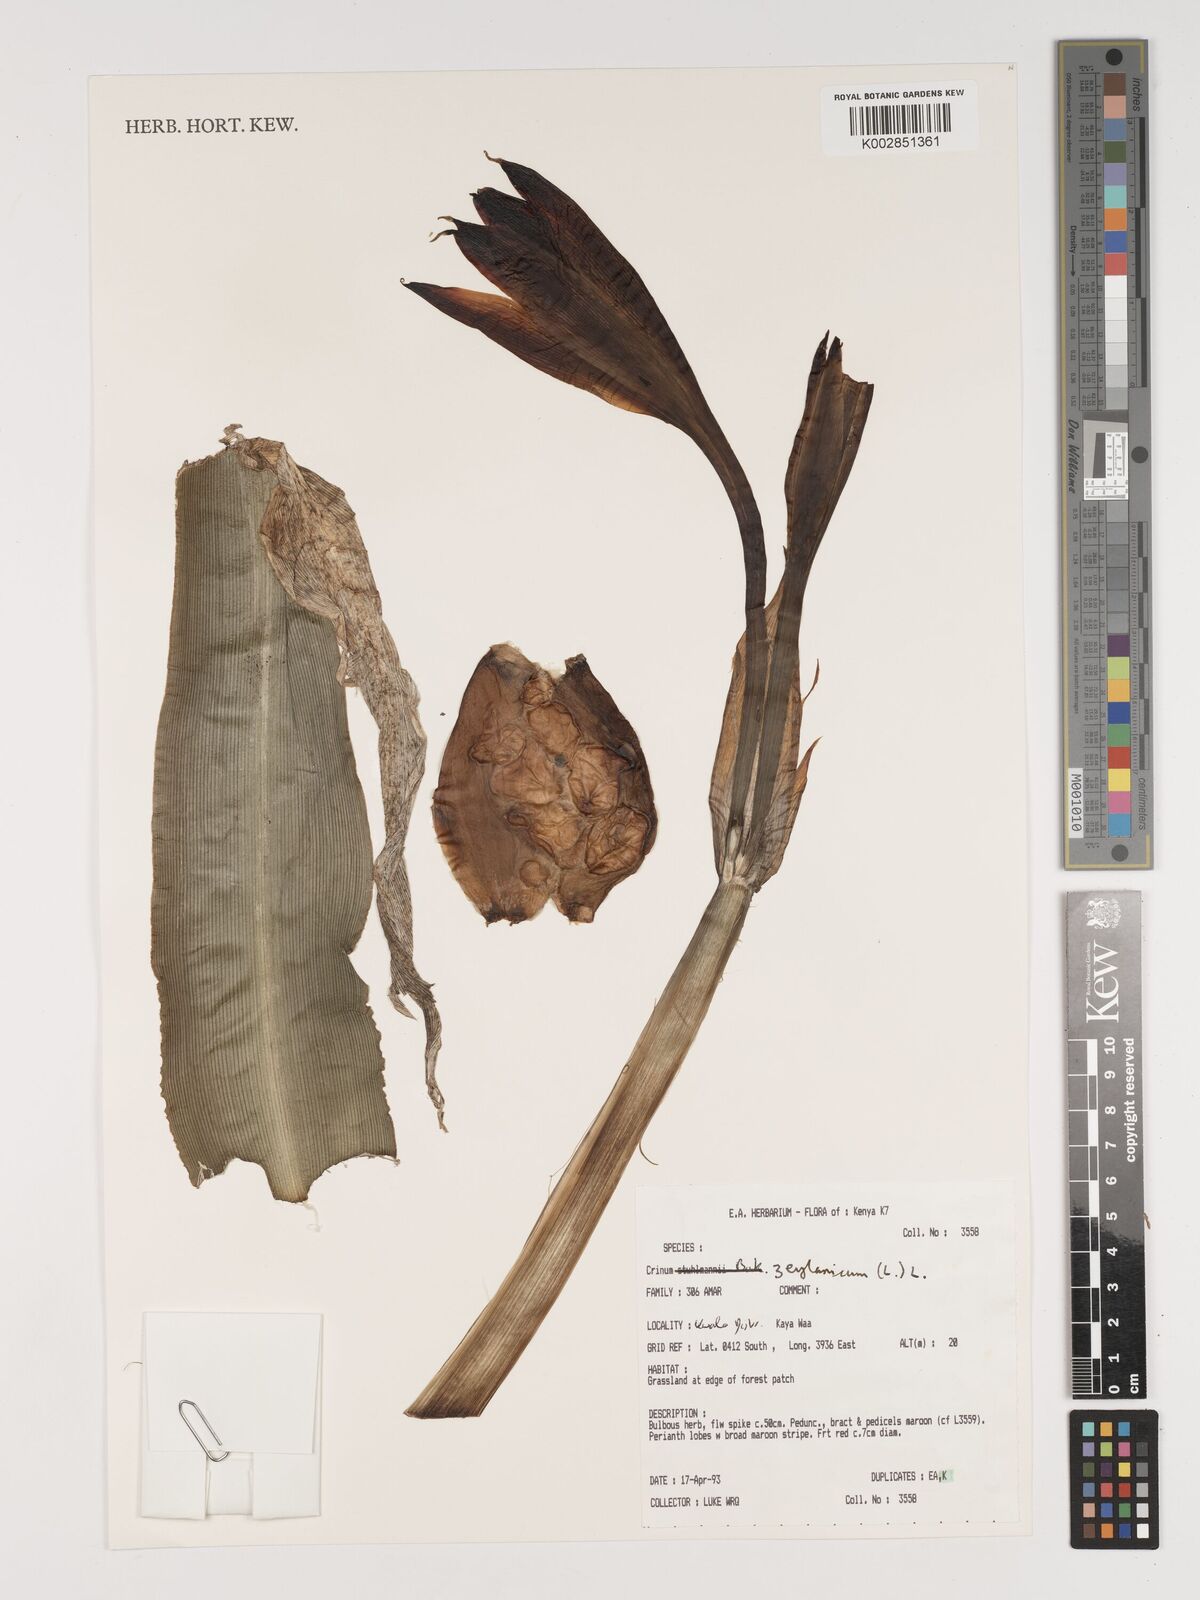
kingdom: Plantae
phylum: Tracheophyta
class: Liliopsida
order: Asparagales
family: Amaryllidaceae
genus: Crinum
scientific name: Crinum zeylanicum
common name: Ceylon swamplily
